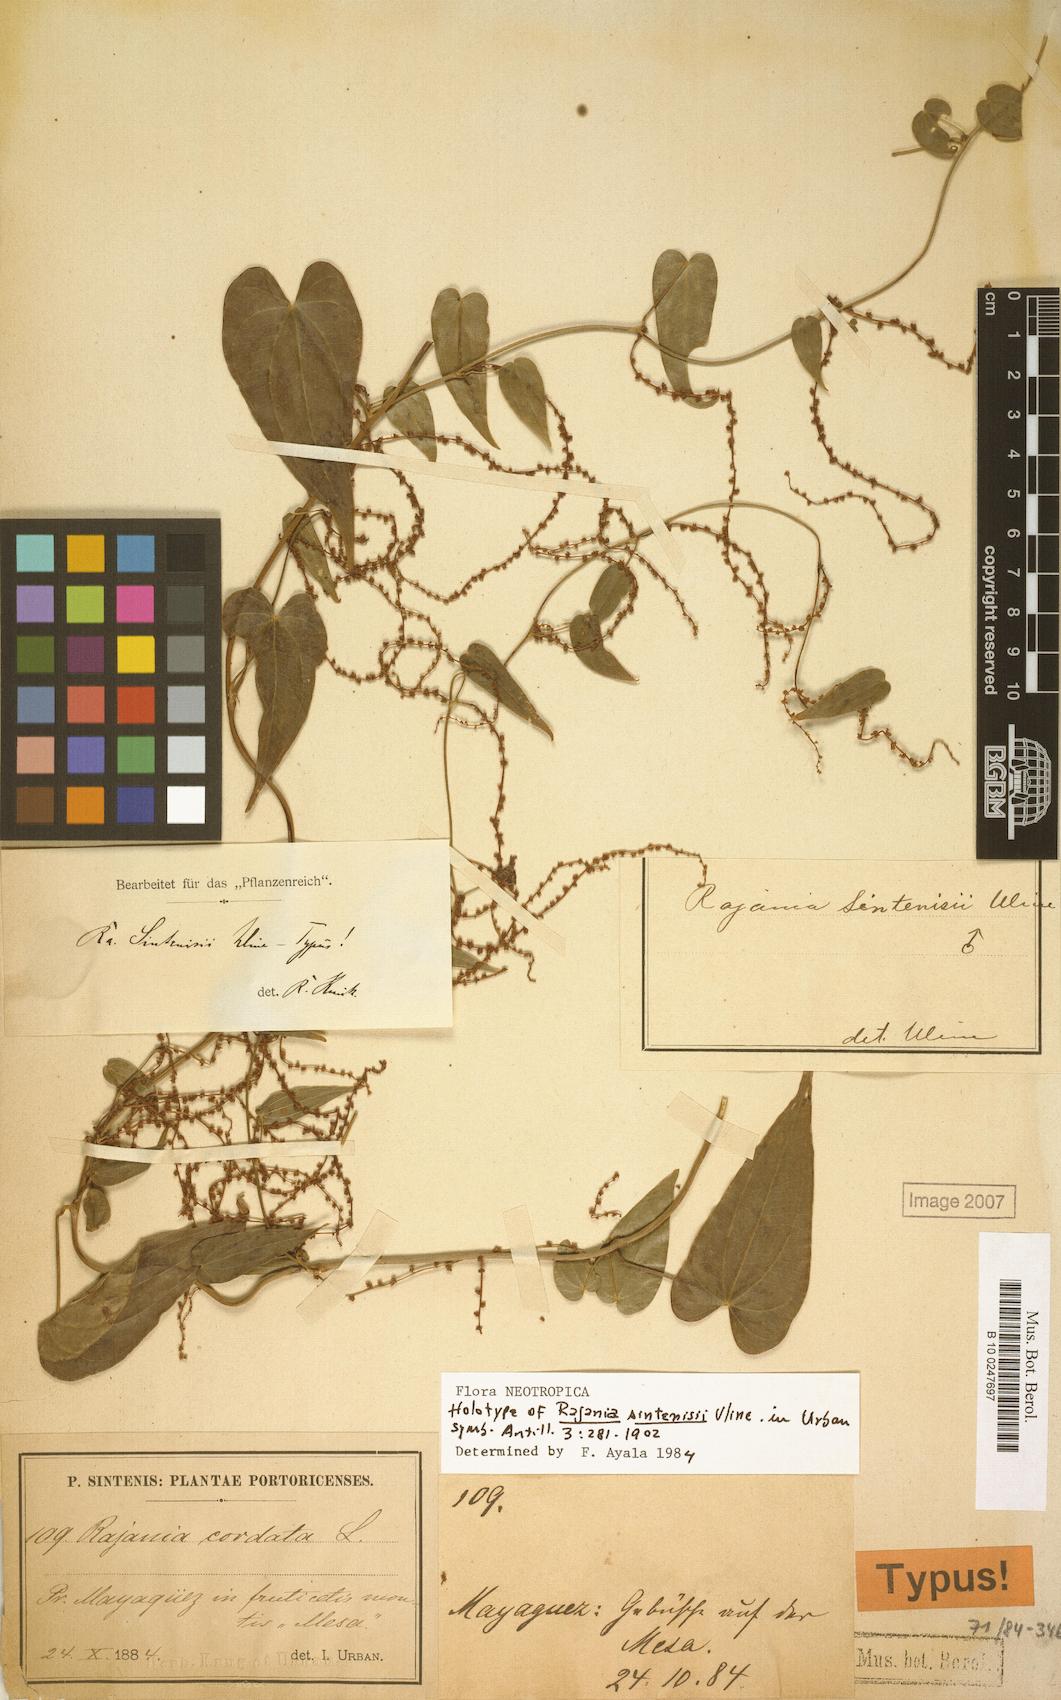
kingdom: Plantae
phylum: Tracheophyta
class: Liliopsida
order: Dioscoreales
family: Dioscoreaceae
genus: Dioscorea
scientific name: Dioscorea cordata
